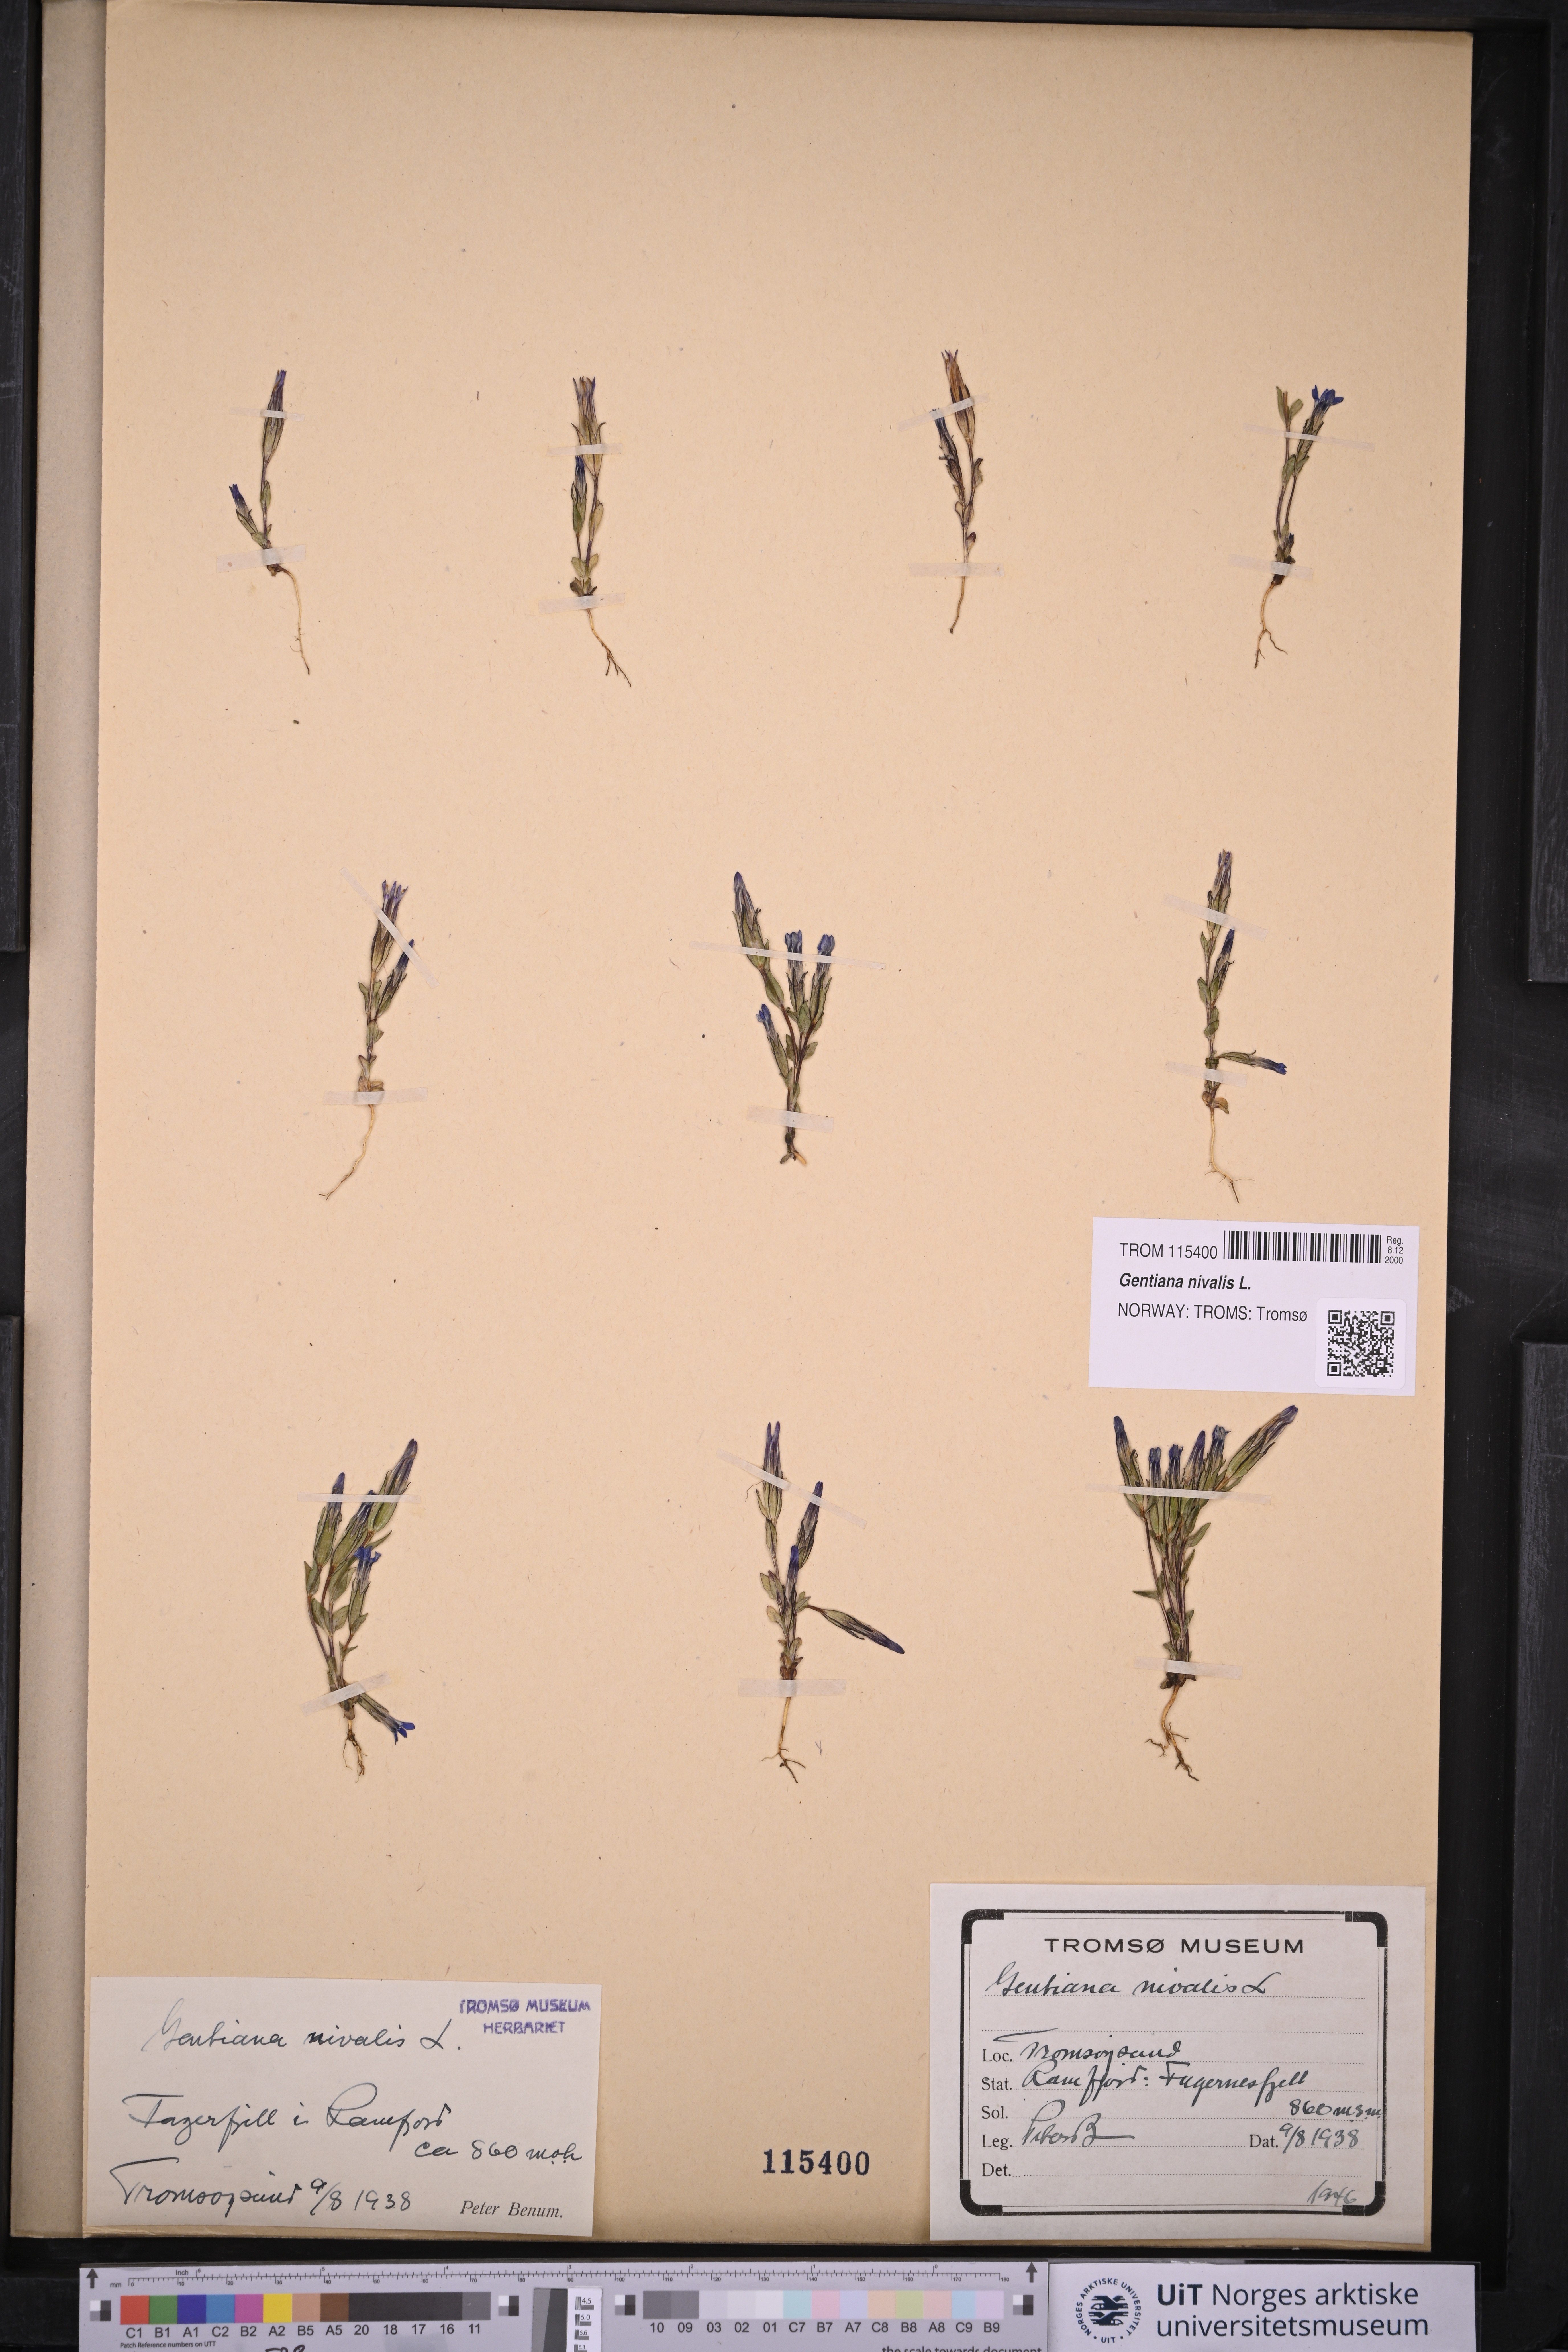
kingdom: Plantae
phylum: Tracheophyta
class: Magnoliopsida
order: Gentianales
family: Gentianaceae
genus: Gentiana
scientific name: Gentiana nivalis
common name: Alpine gentian
